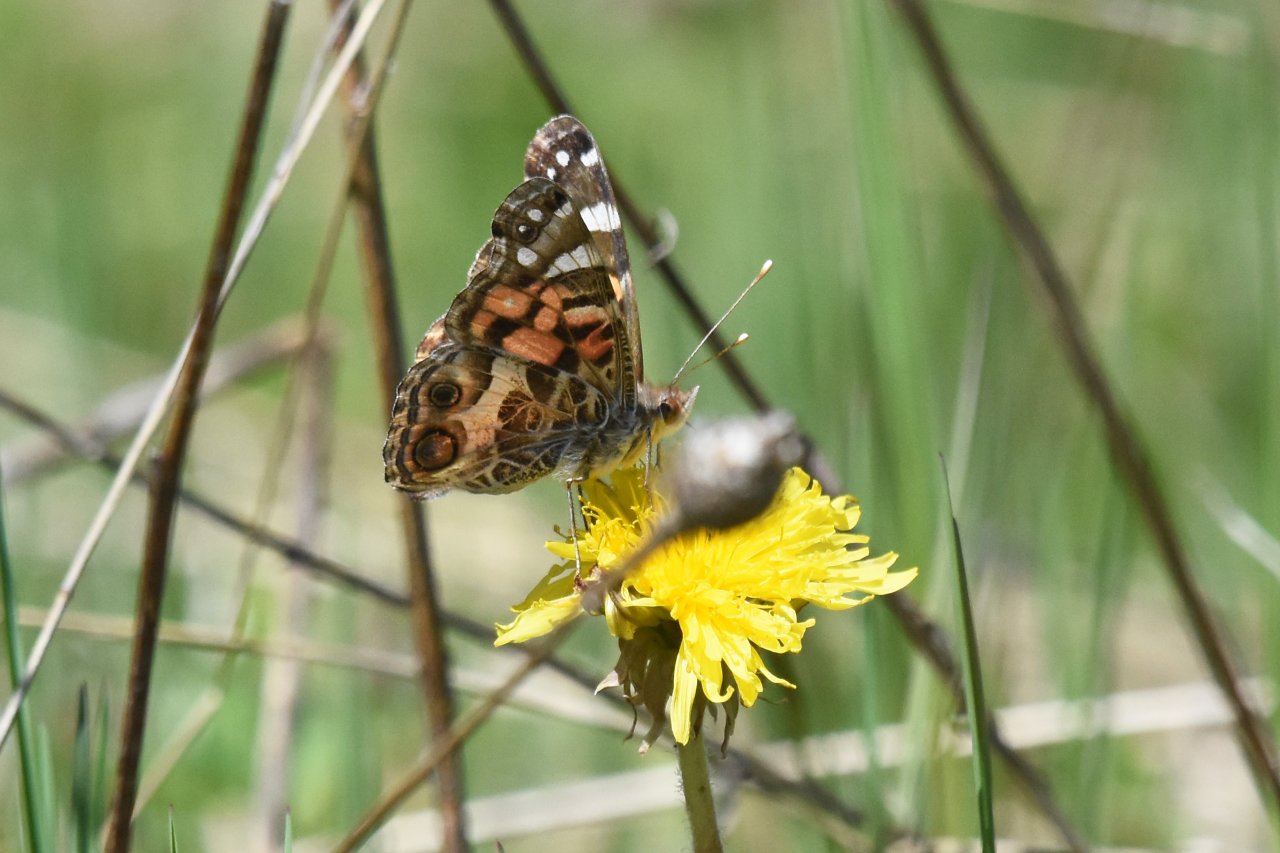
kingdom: Animalia
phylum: Arthropoda
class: Insecta
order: Lepidoptera
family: Nymphalidae
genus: Vanessa
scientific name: Vanessa virginiensis
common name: American Lady
